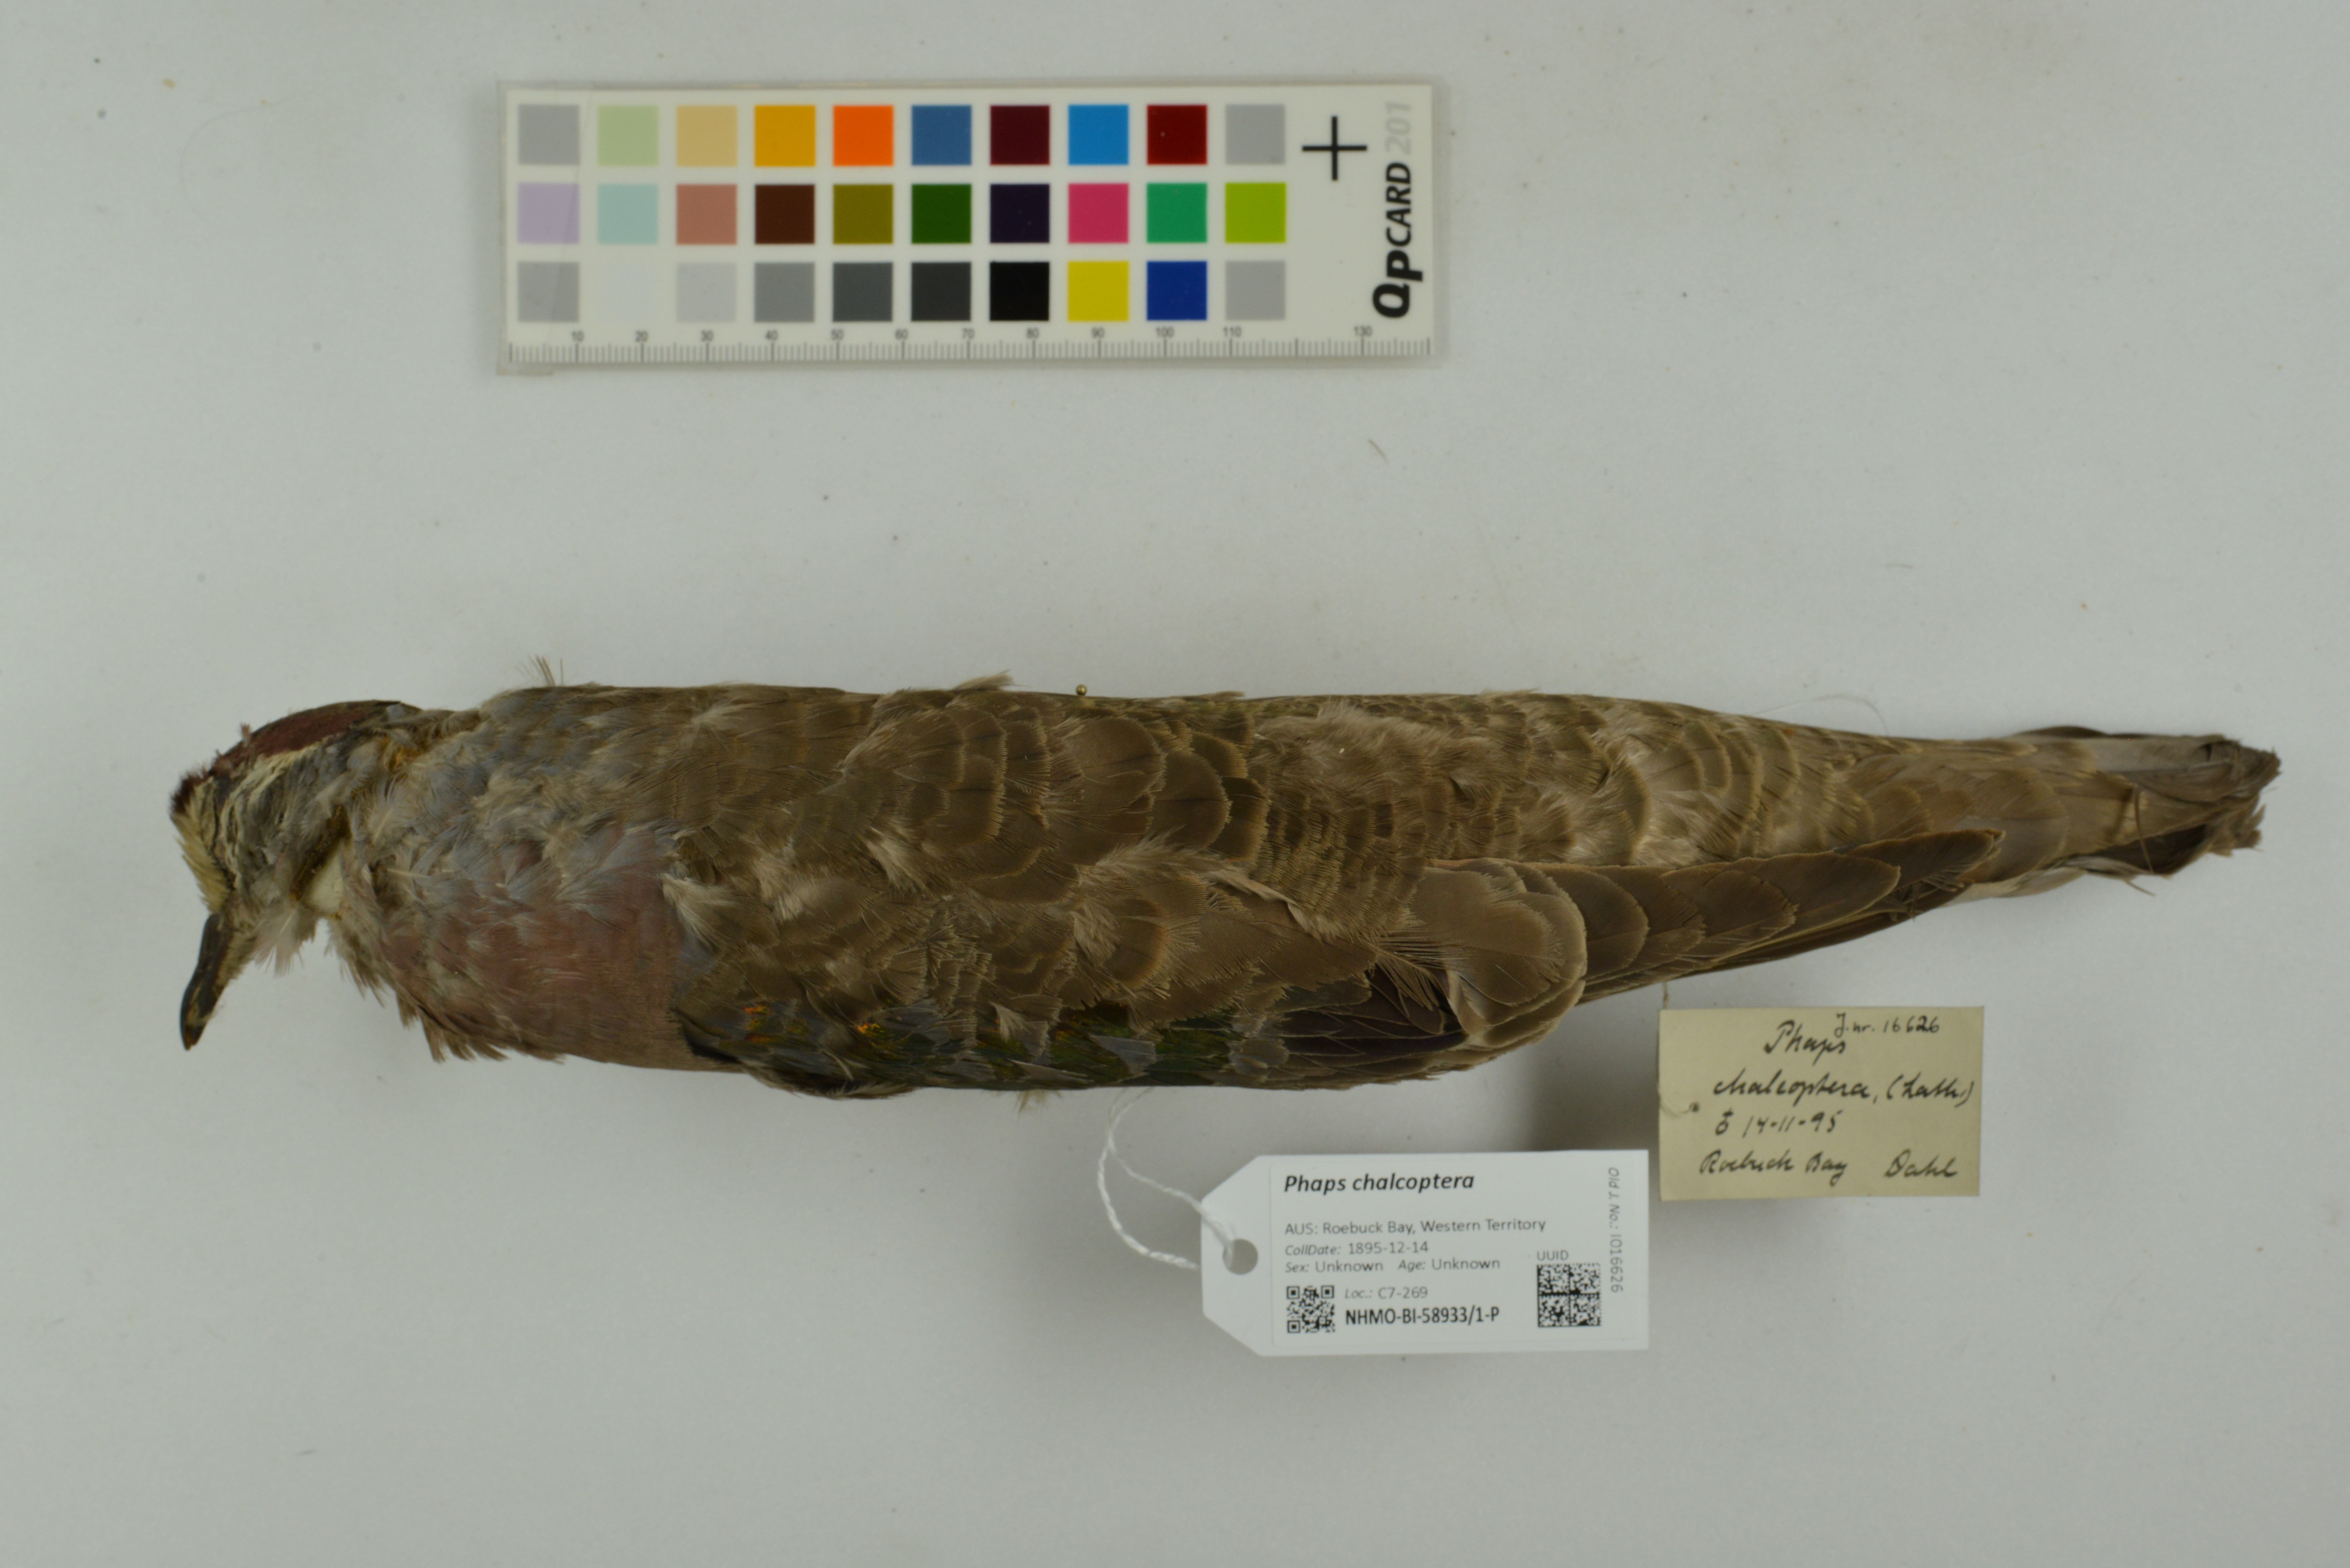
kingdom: Animalia
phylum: Chordata
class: Aves
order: Columbiformes
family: Columbidae
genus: Phaps
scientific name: Phaps chalcoptera
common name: Common bronzewing
